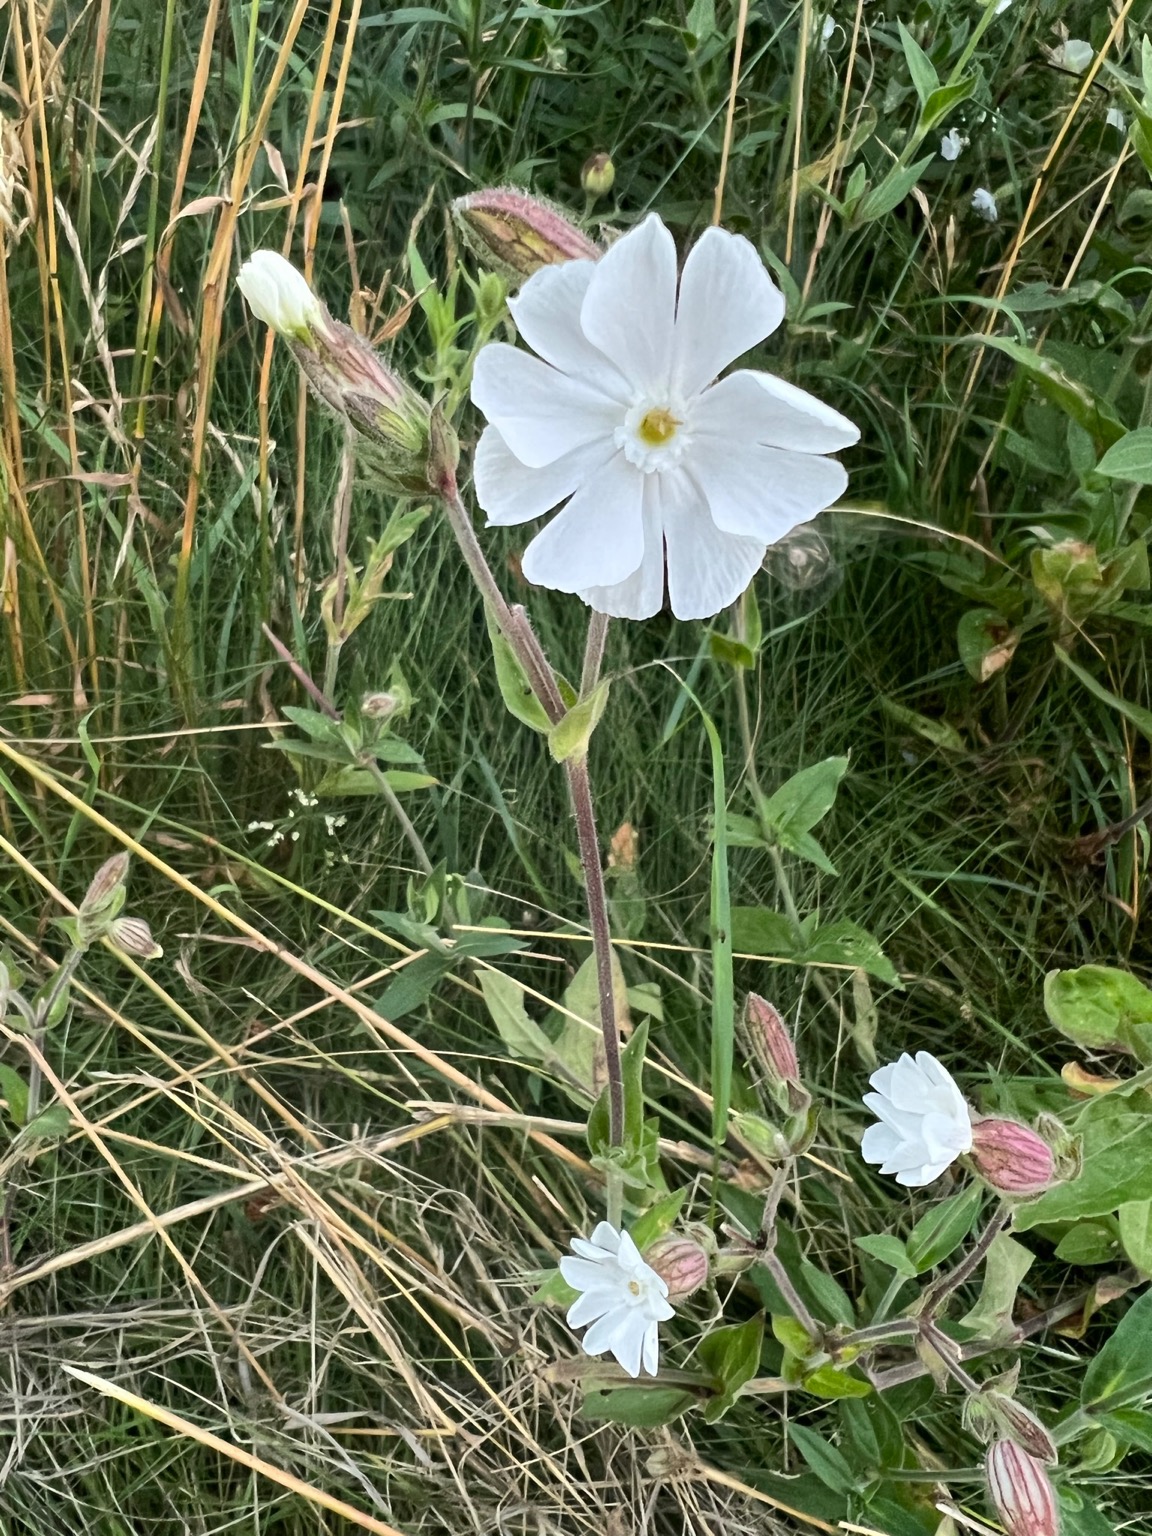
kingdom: Plantae
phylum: Tracheophyta
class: Magnoliopsida
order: Caryophyllales
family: Caryophyllaceae
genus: Silene
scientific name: Silene latifolia
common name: Aftenpragtstjerne
